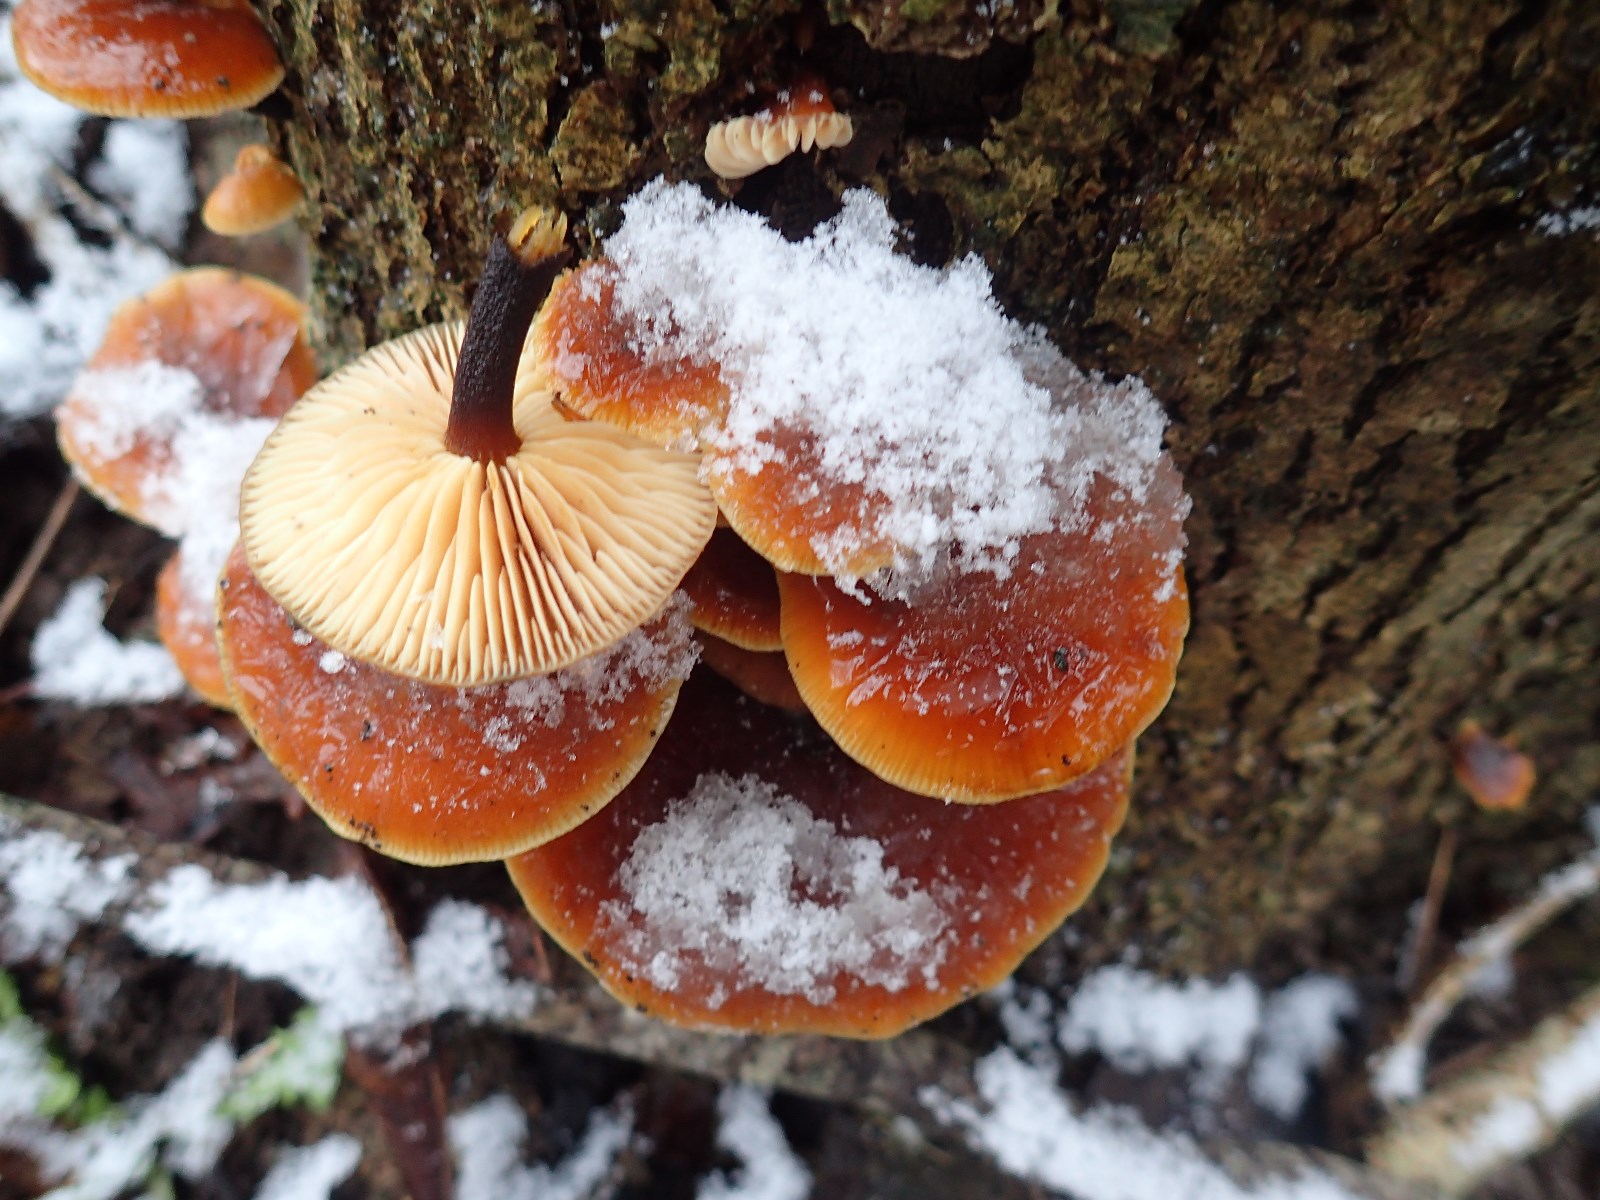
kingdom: Fungi
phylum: Basidiomycota
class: Agaricomycetes
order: Agaricales
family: Physalacriaceae
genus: Flammulina
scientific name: Flammulina velutipes
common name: gul fløjlsfod
